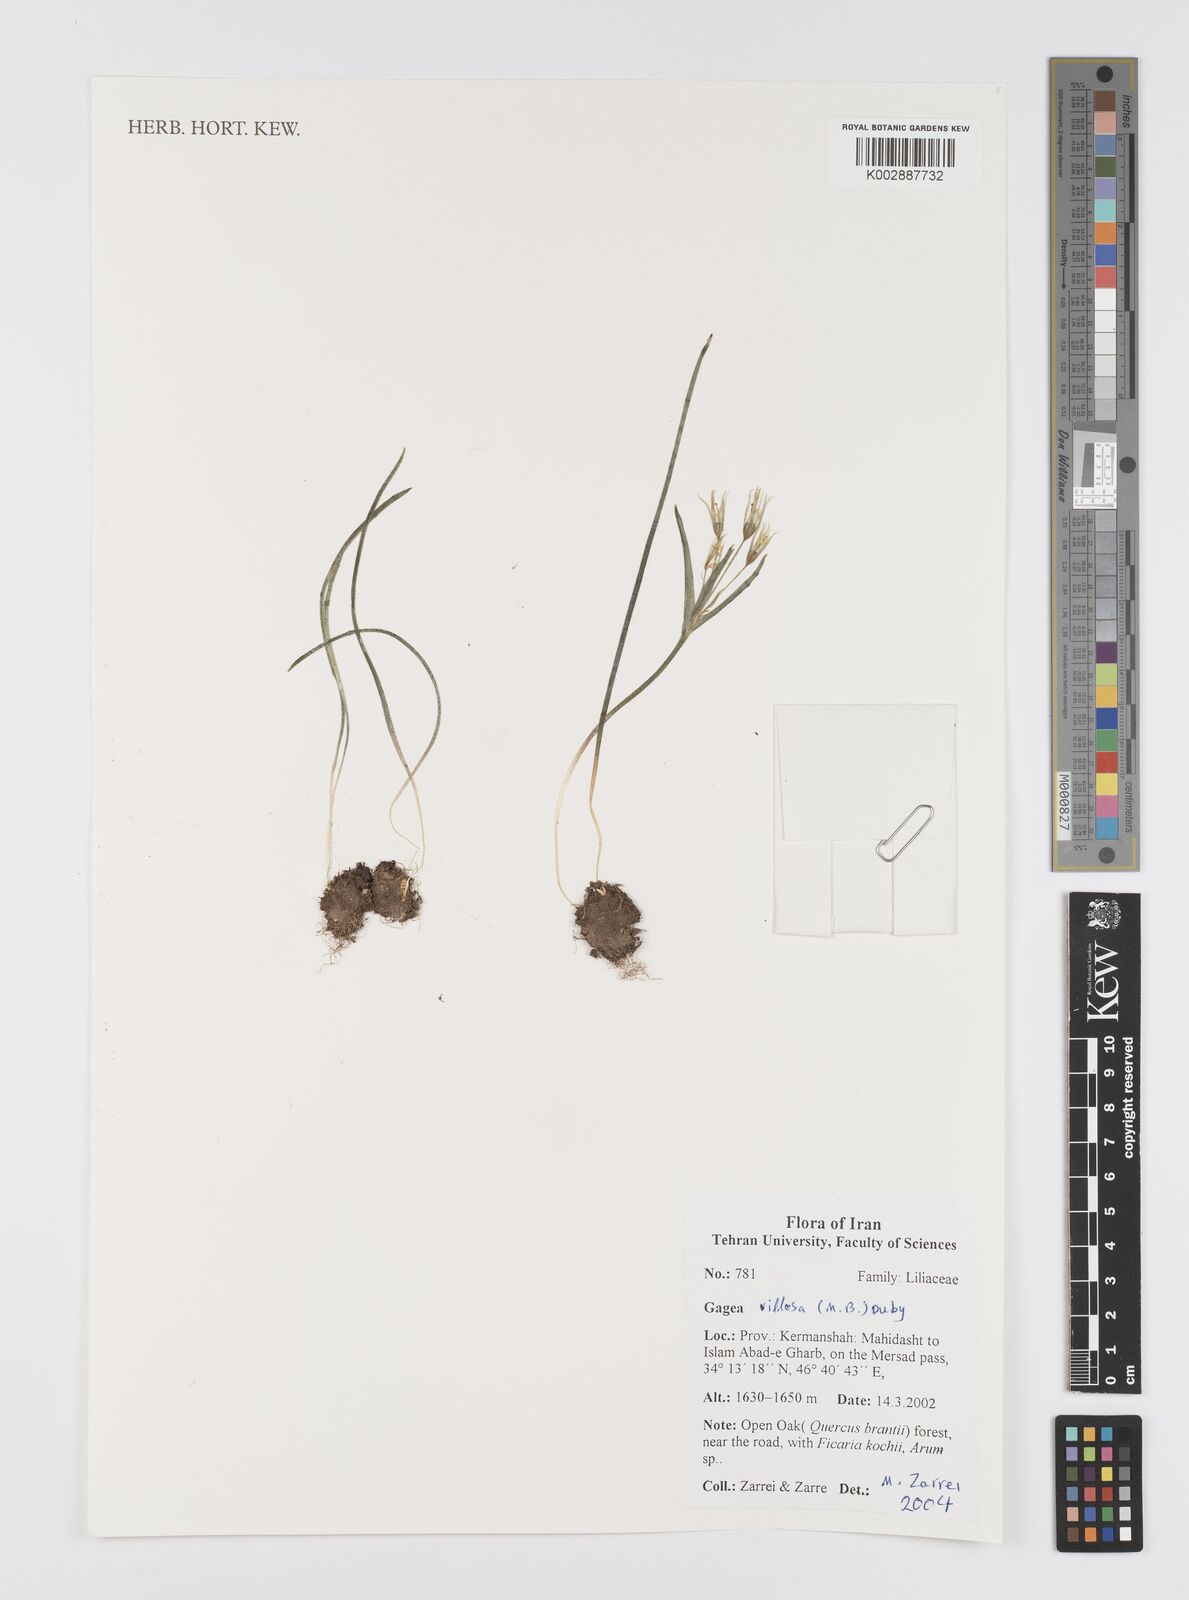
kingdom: Plantae
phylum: Tracheophyta
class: Liliopsida
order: Liliales
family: Liliaceae
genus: Gagea
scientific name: Gagea villosa
